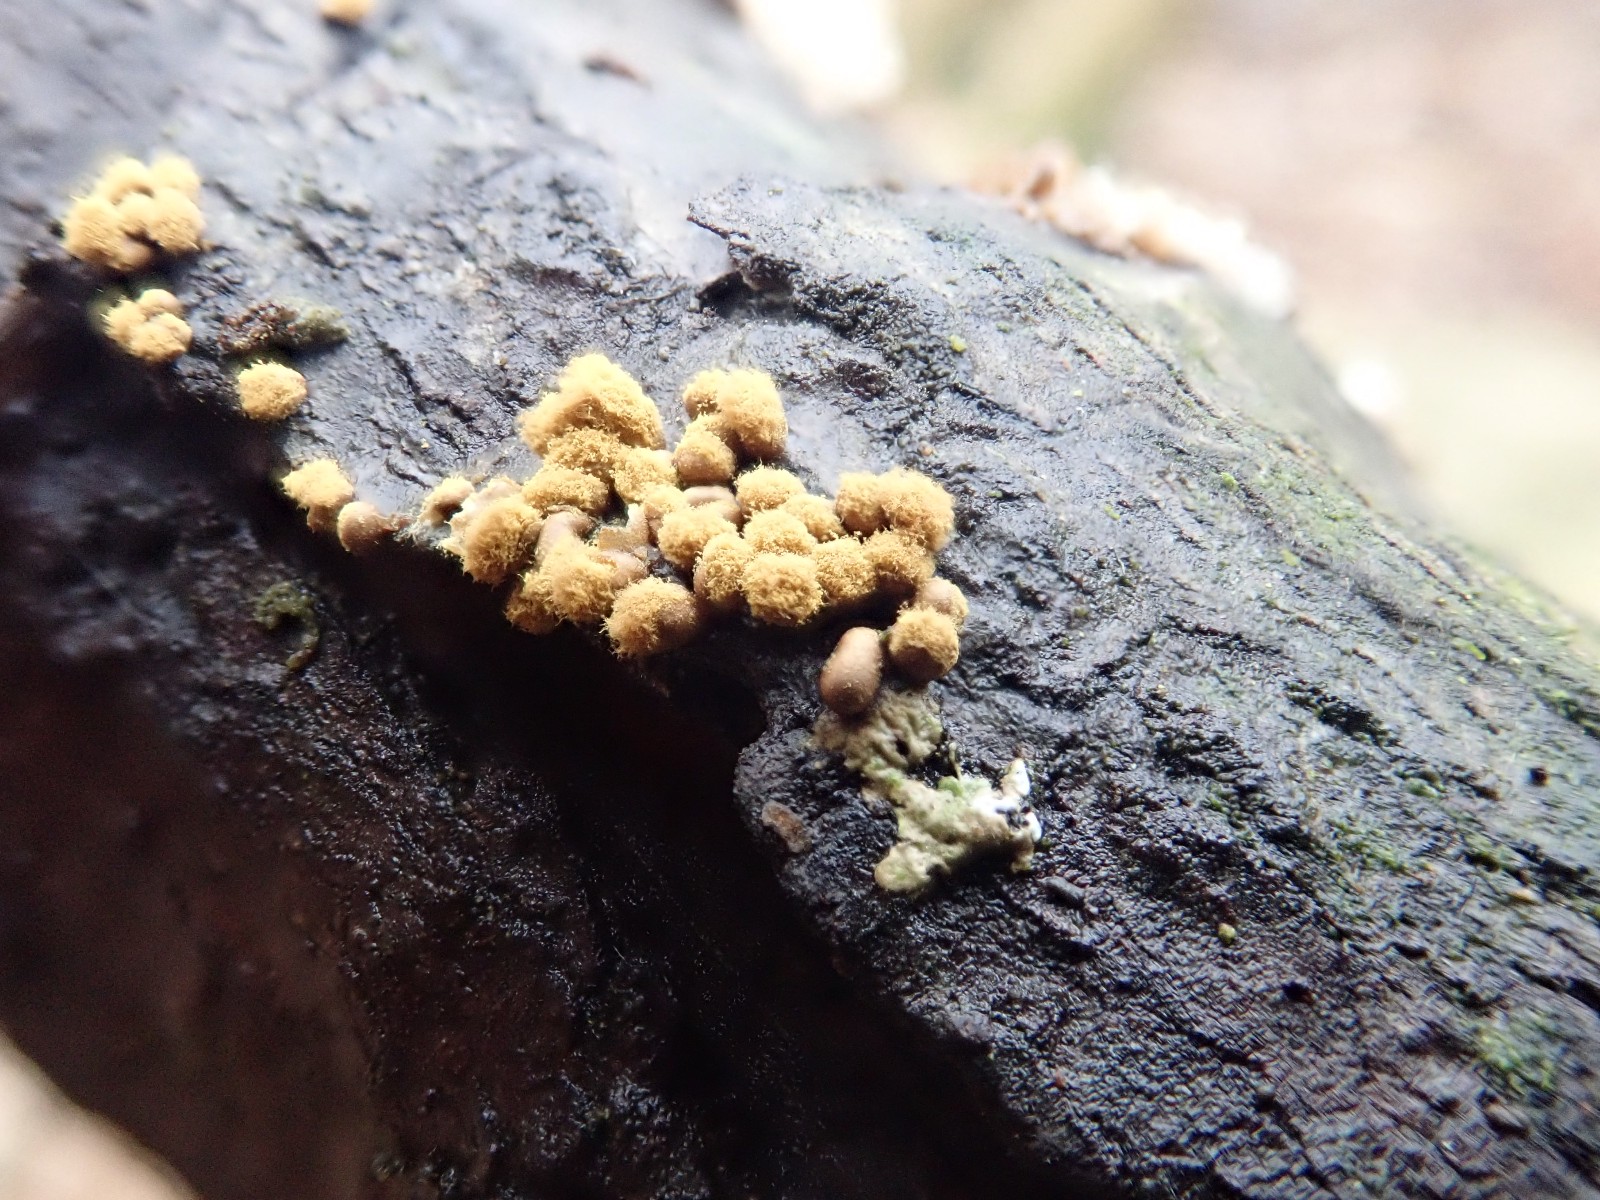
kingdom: Protozoa
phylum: Mycetozoa
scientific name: Mycetozoa
